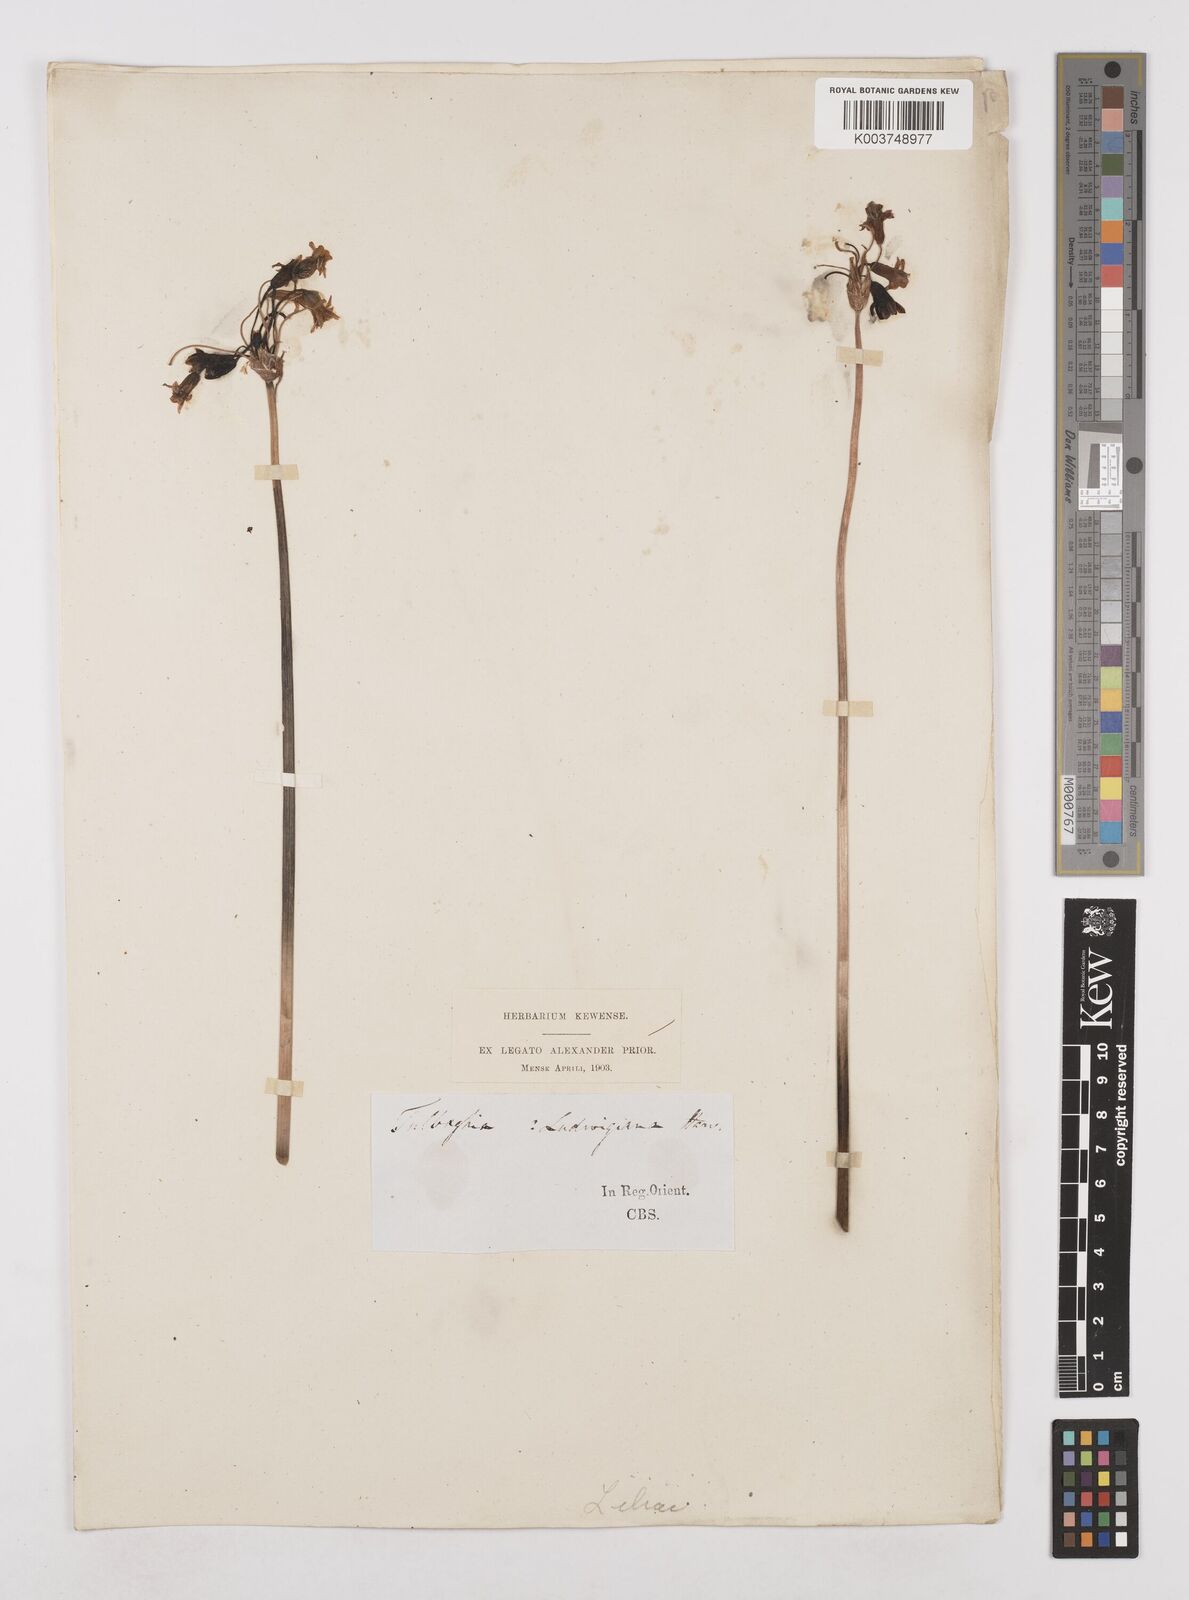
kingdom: Plantae
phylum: Tracheophyta
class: Liliopsida
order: Asparagales
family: Amaryllidaceae
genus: Tulbaghia
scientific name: Tulbaghia ludwigiana
